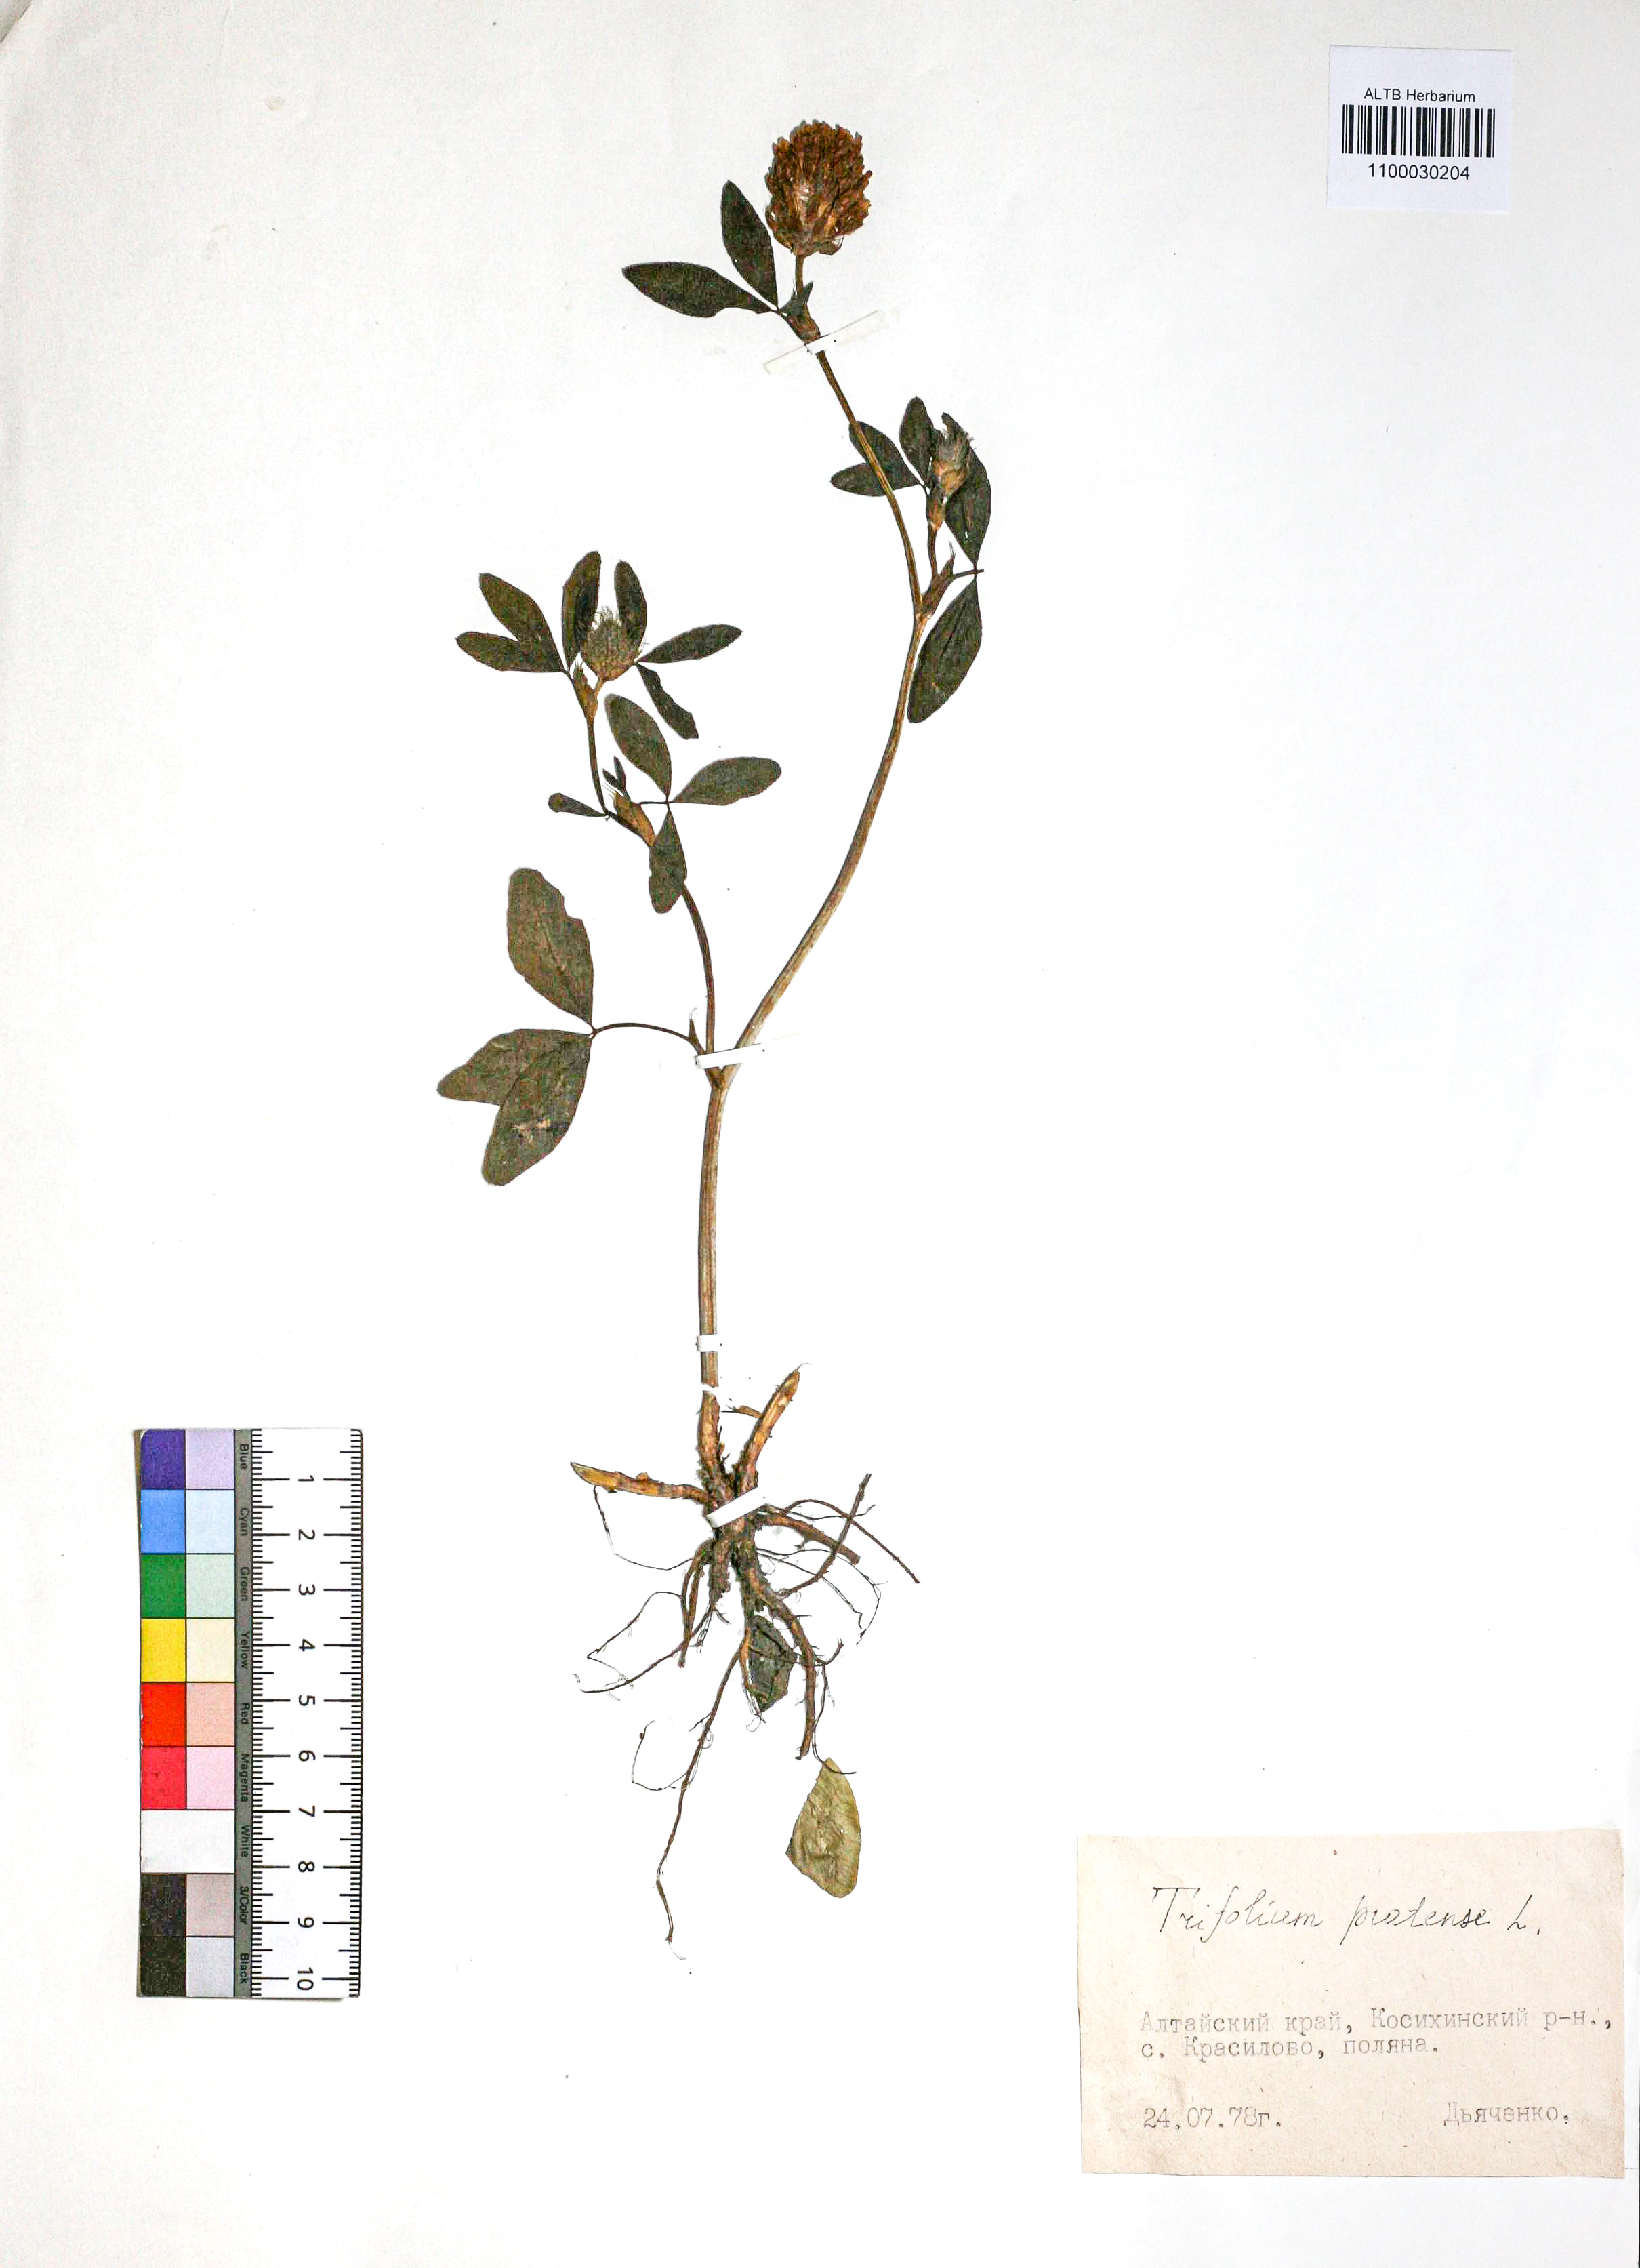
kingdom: Plantae
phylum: Tracheophyta
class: Magnoliopsida
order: Fabales
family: Fabaceae
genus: Trifolium
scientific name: Trifolium pratense
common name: Red clover
